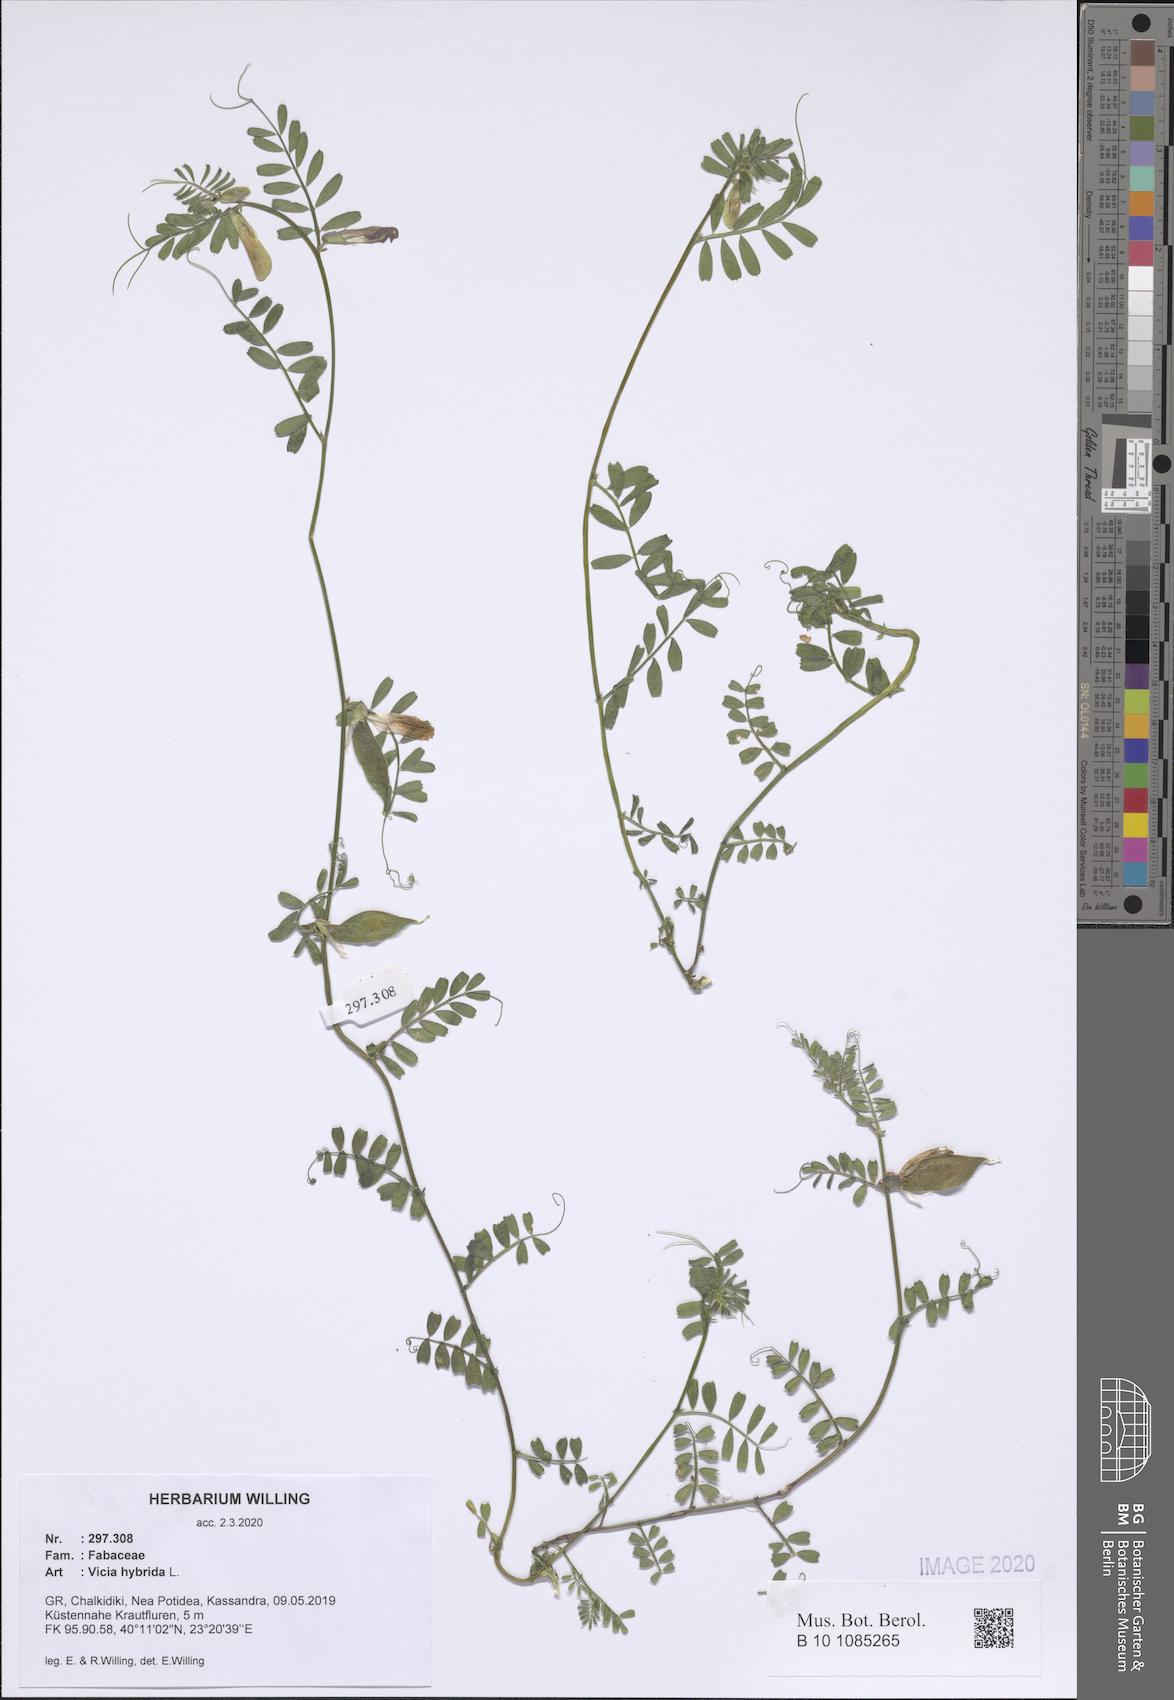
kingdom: Plantae
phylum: Tracheophyta
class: Magnoliopsida
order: Fabales
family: Fabaceae
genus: Vicia
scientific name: Vicia hybrida
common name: Hairy yellow vetch
